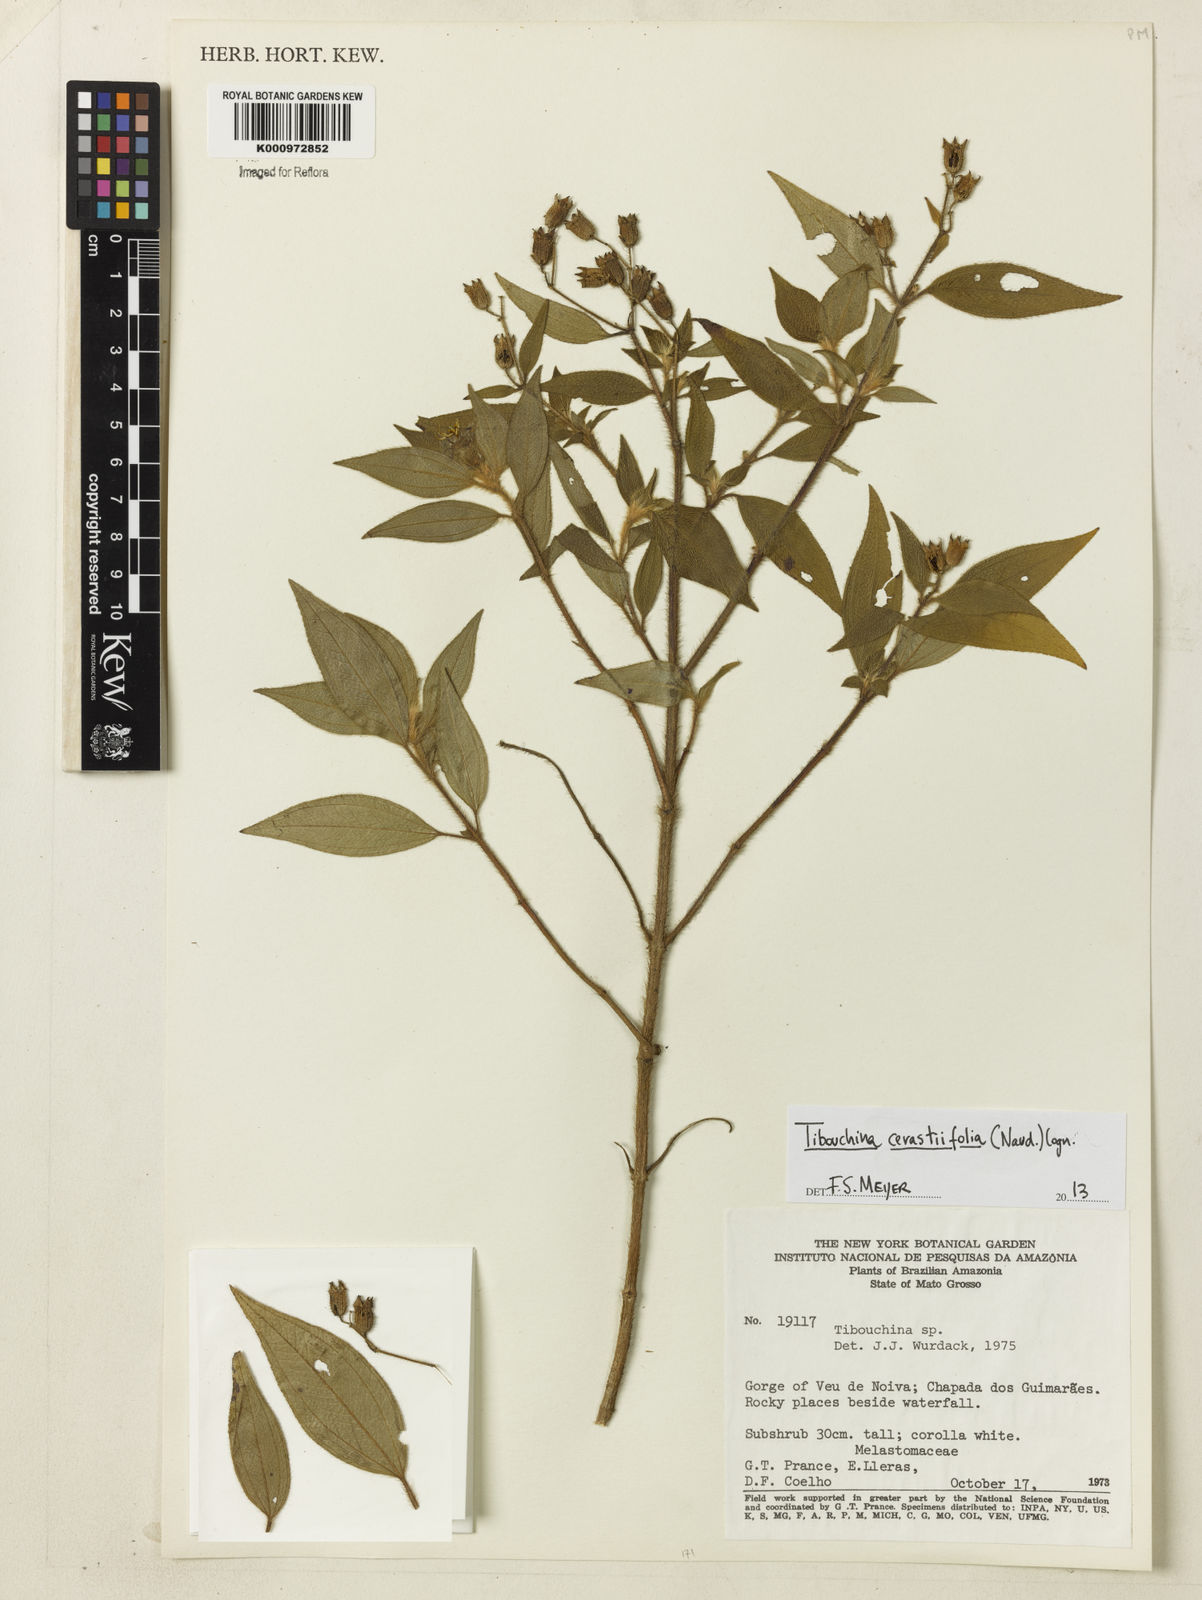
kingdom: Plantae
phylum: Tracheophyta
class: Magnoliopsida
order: Myrtales
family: Melastomataceae
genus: Chaetogastra
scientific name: Chaetogastra cerastifolia
